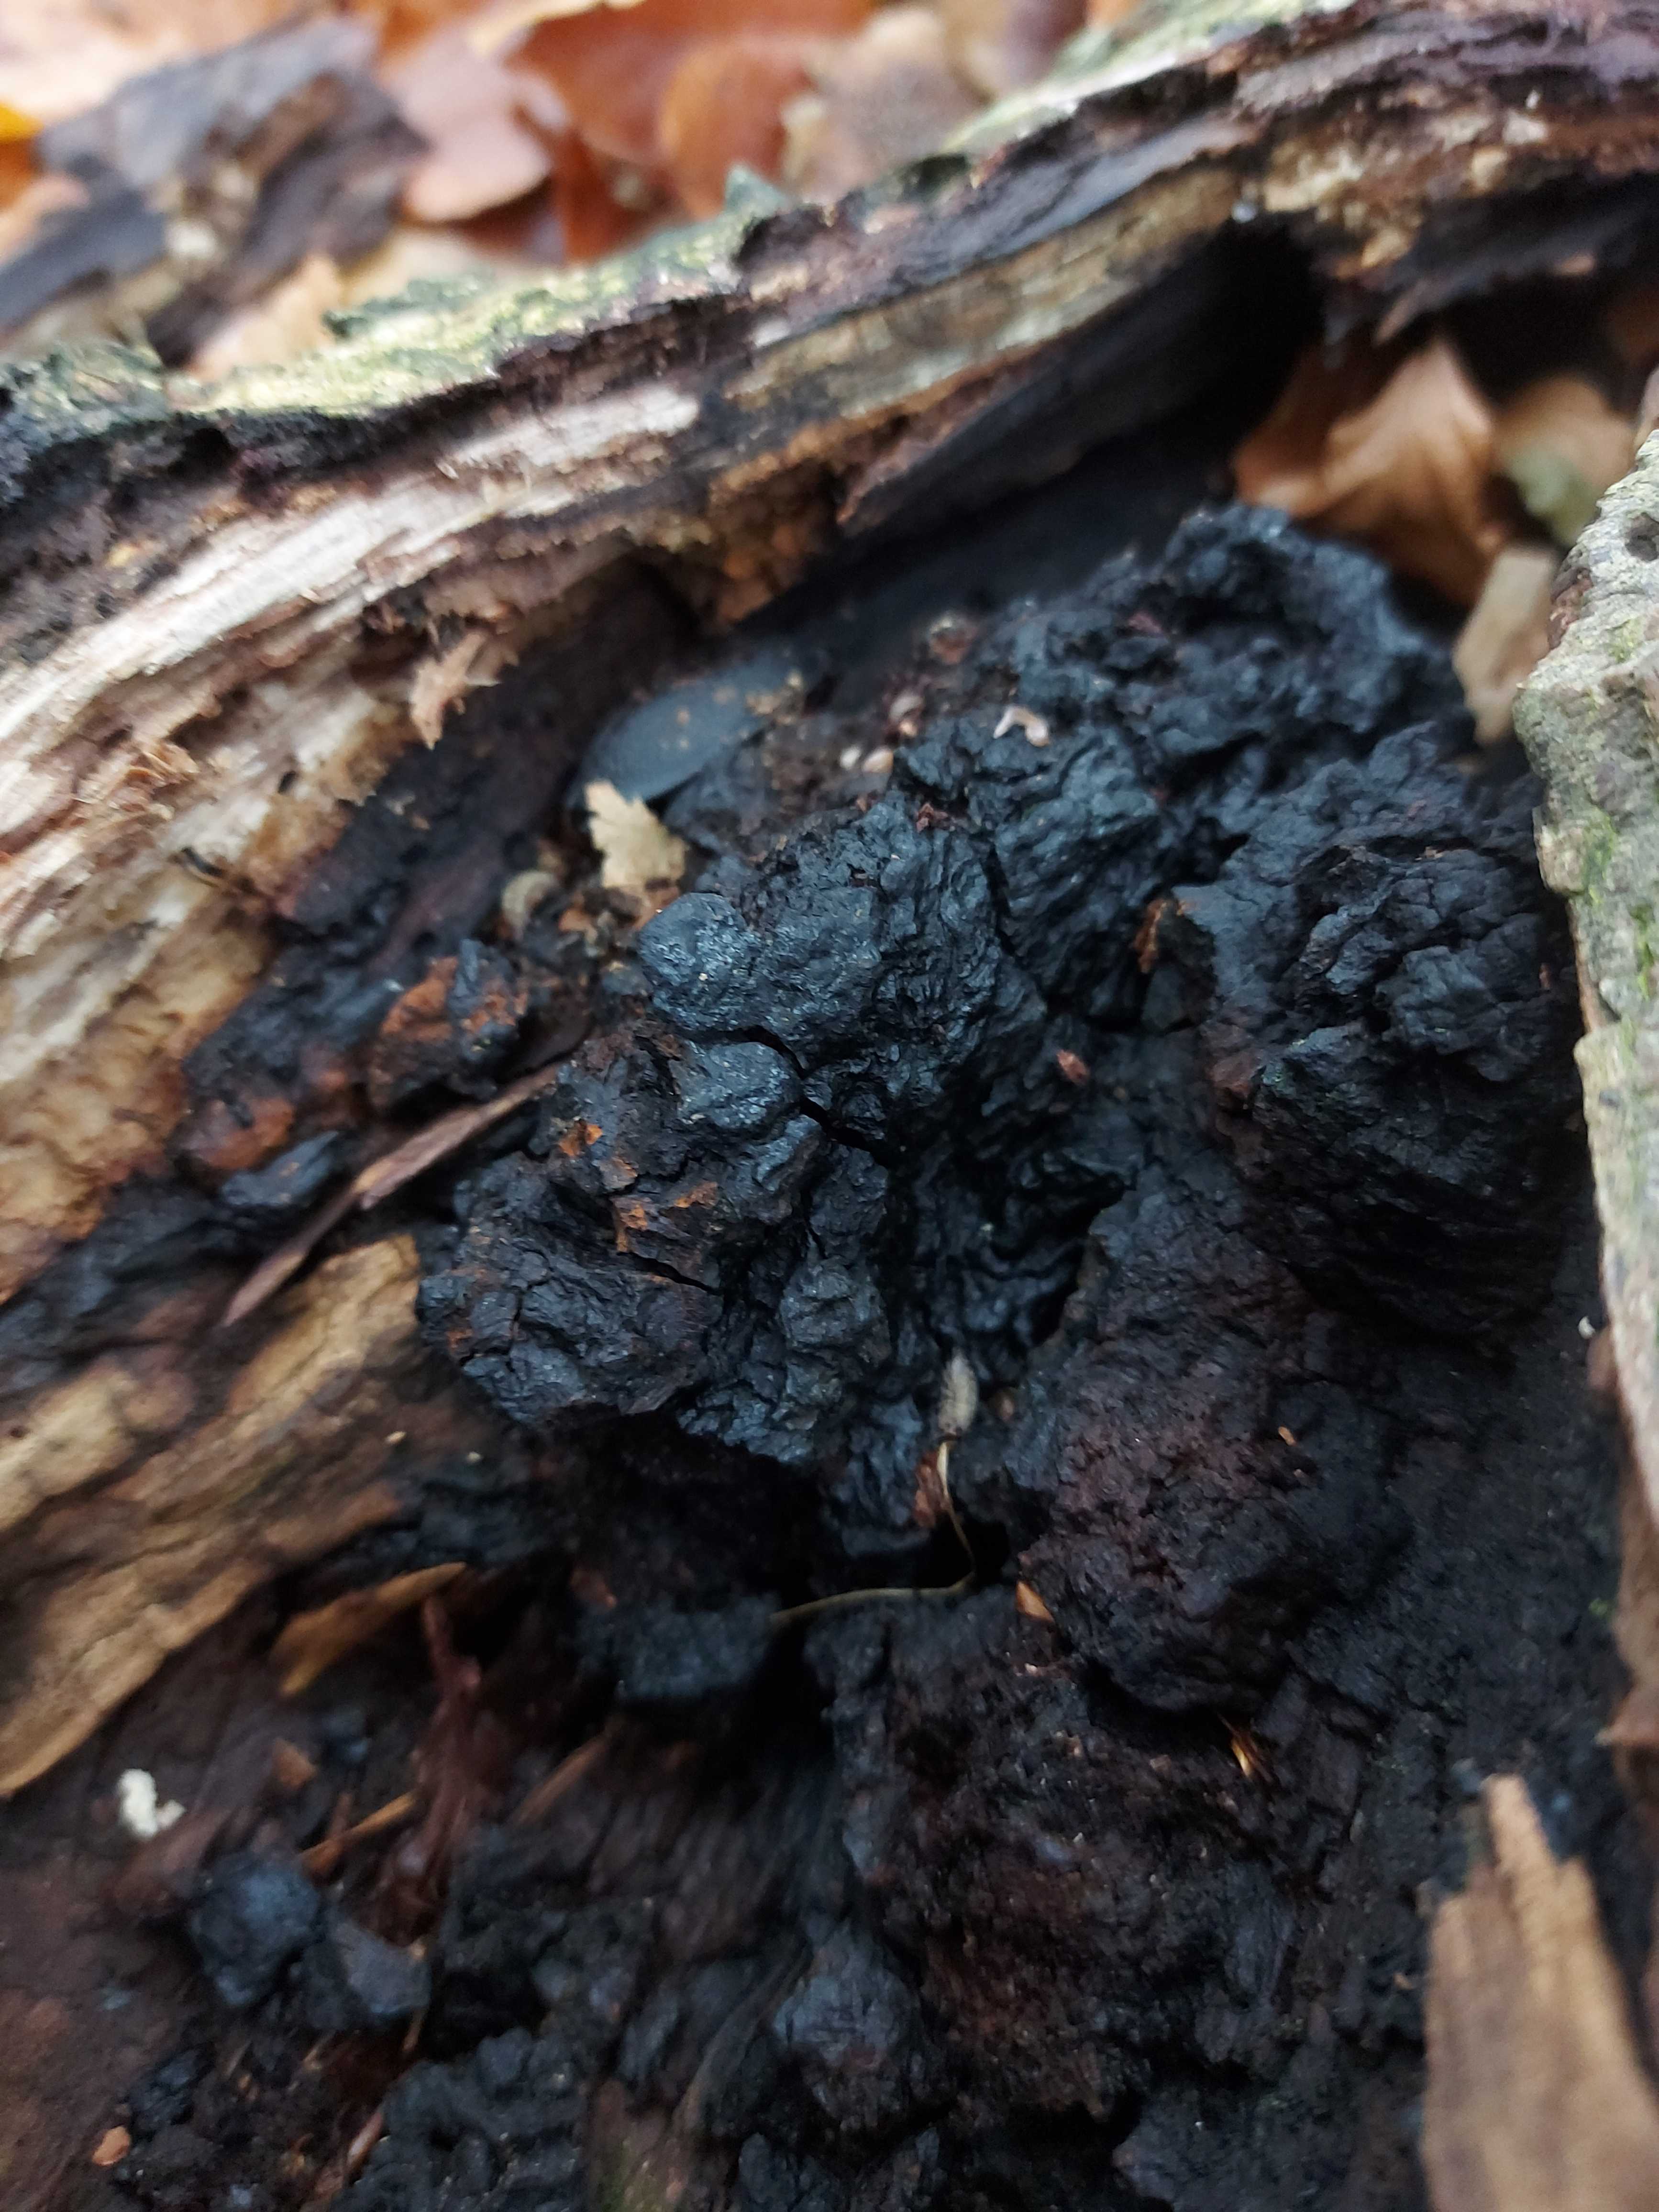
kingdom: Fungi
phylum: Basidiomycota
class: Agaricomycetes
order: Hymenochaetales
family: Hymenochaetaceae
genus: Inonotus
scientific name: Inonotus obliquus
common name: birke-spejlporesvamp
